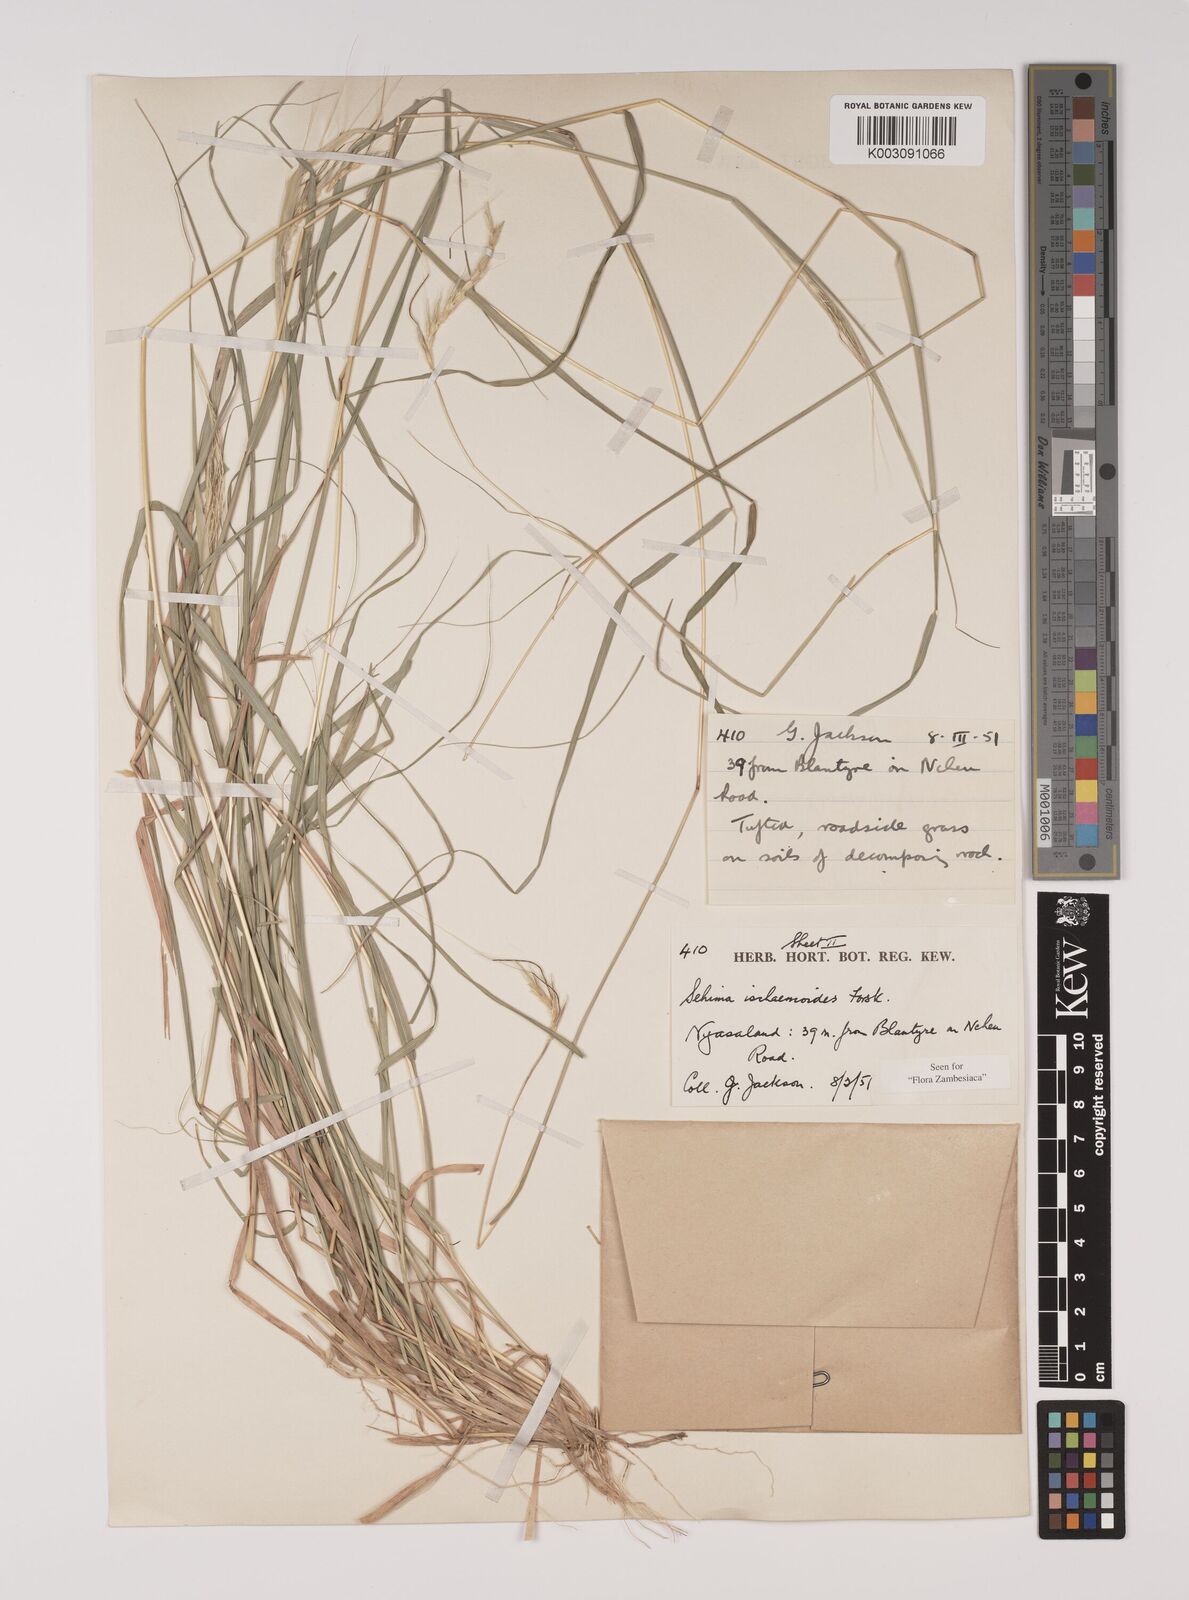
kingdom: Plantae
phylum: Tracheophyta
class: Liliopsida
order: Poales
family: Poaceae
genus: Sehima
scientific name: Sehima ischaemoides
